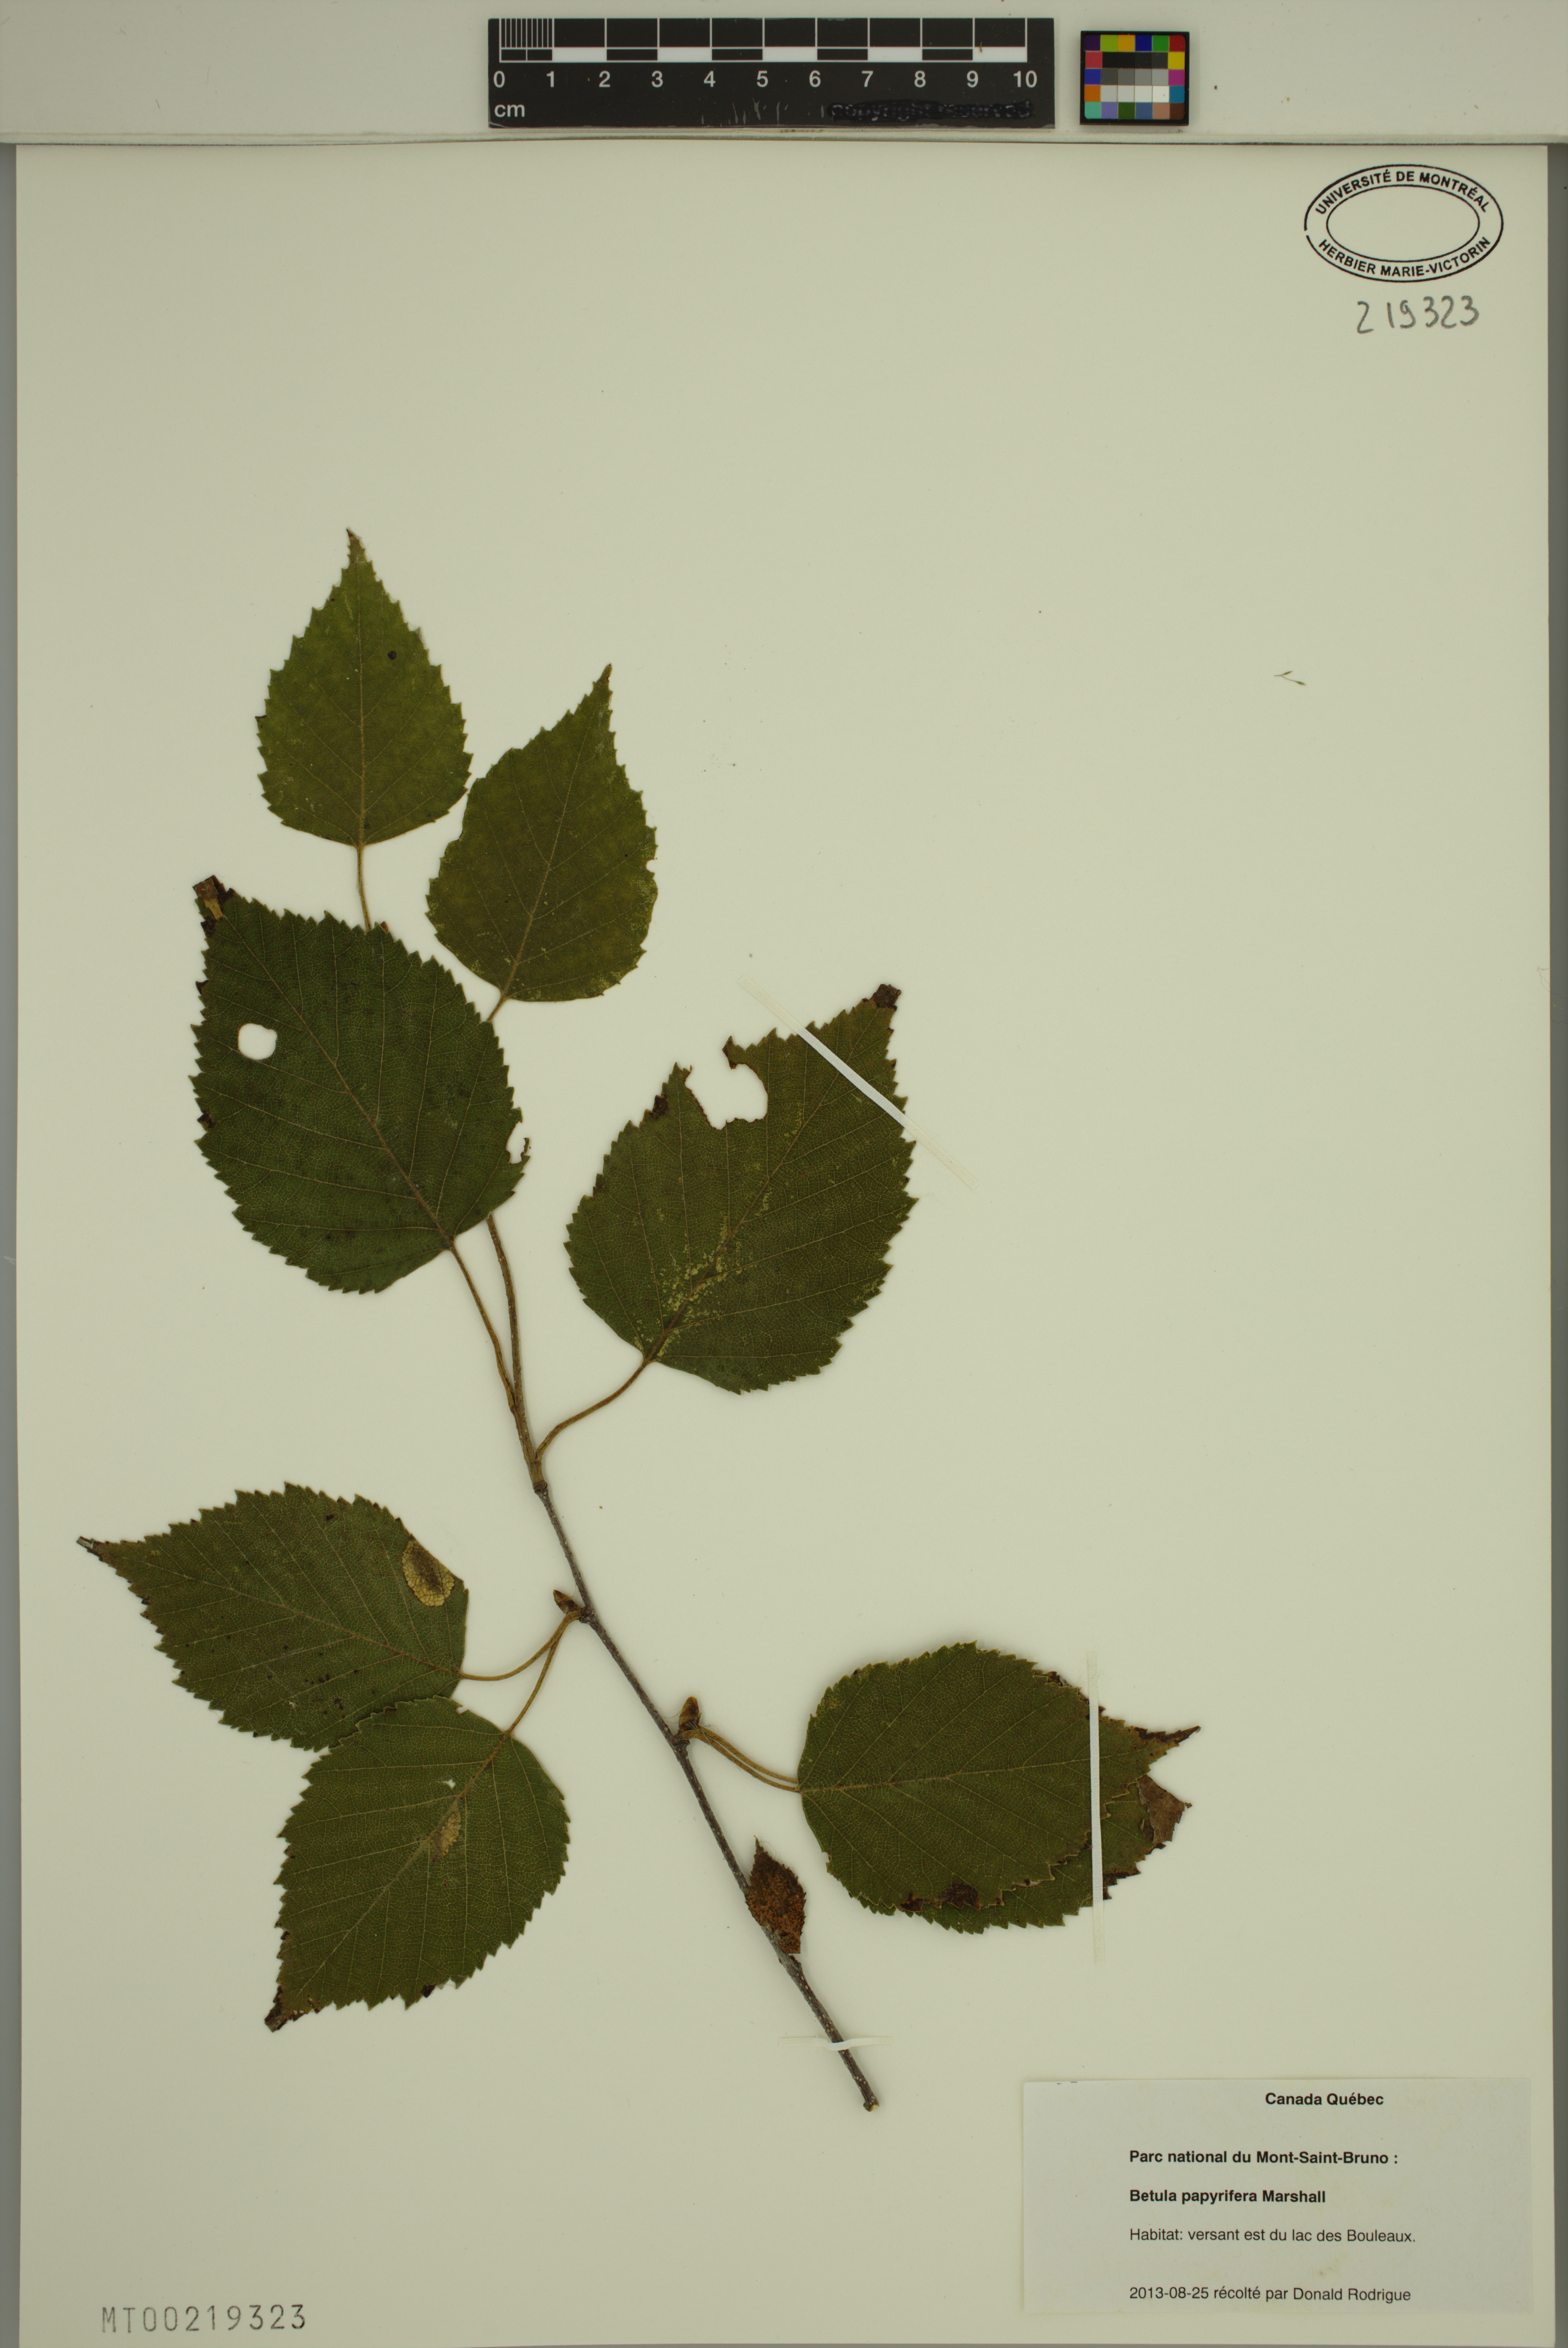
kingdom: Plantae
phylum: Tracheophyta
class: Magnoliopsida
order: Fagales
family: Betulaceae
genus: Betula
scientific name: Betula papyrifera
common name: Paper birch
